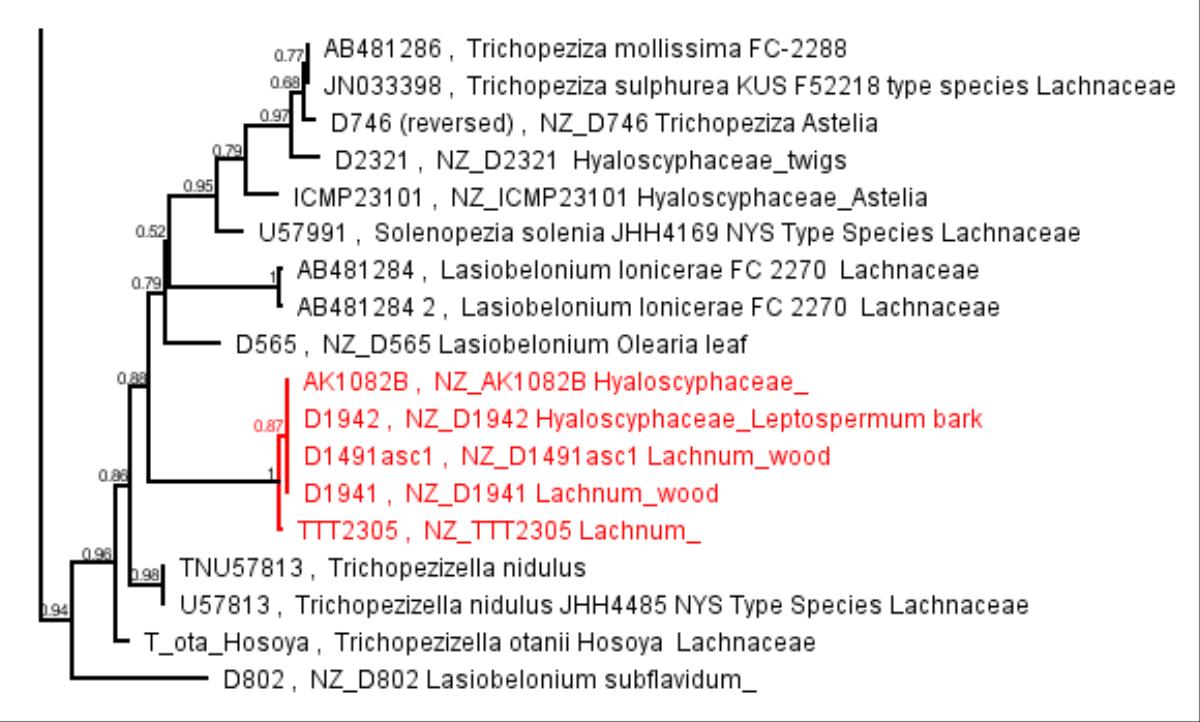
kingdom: Fungi
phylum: Ascomycota
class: Leotiomycetes
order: Helotiales
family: Lachnaceae
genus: Trichopeziza
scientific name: Trichopeziza
